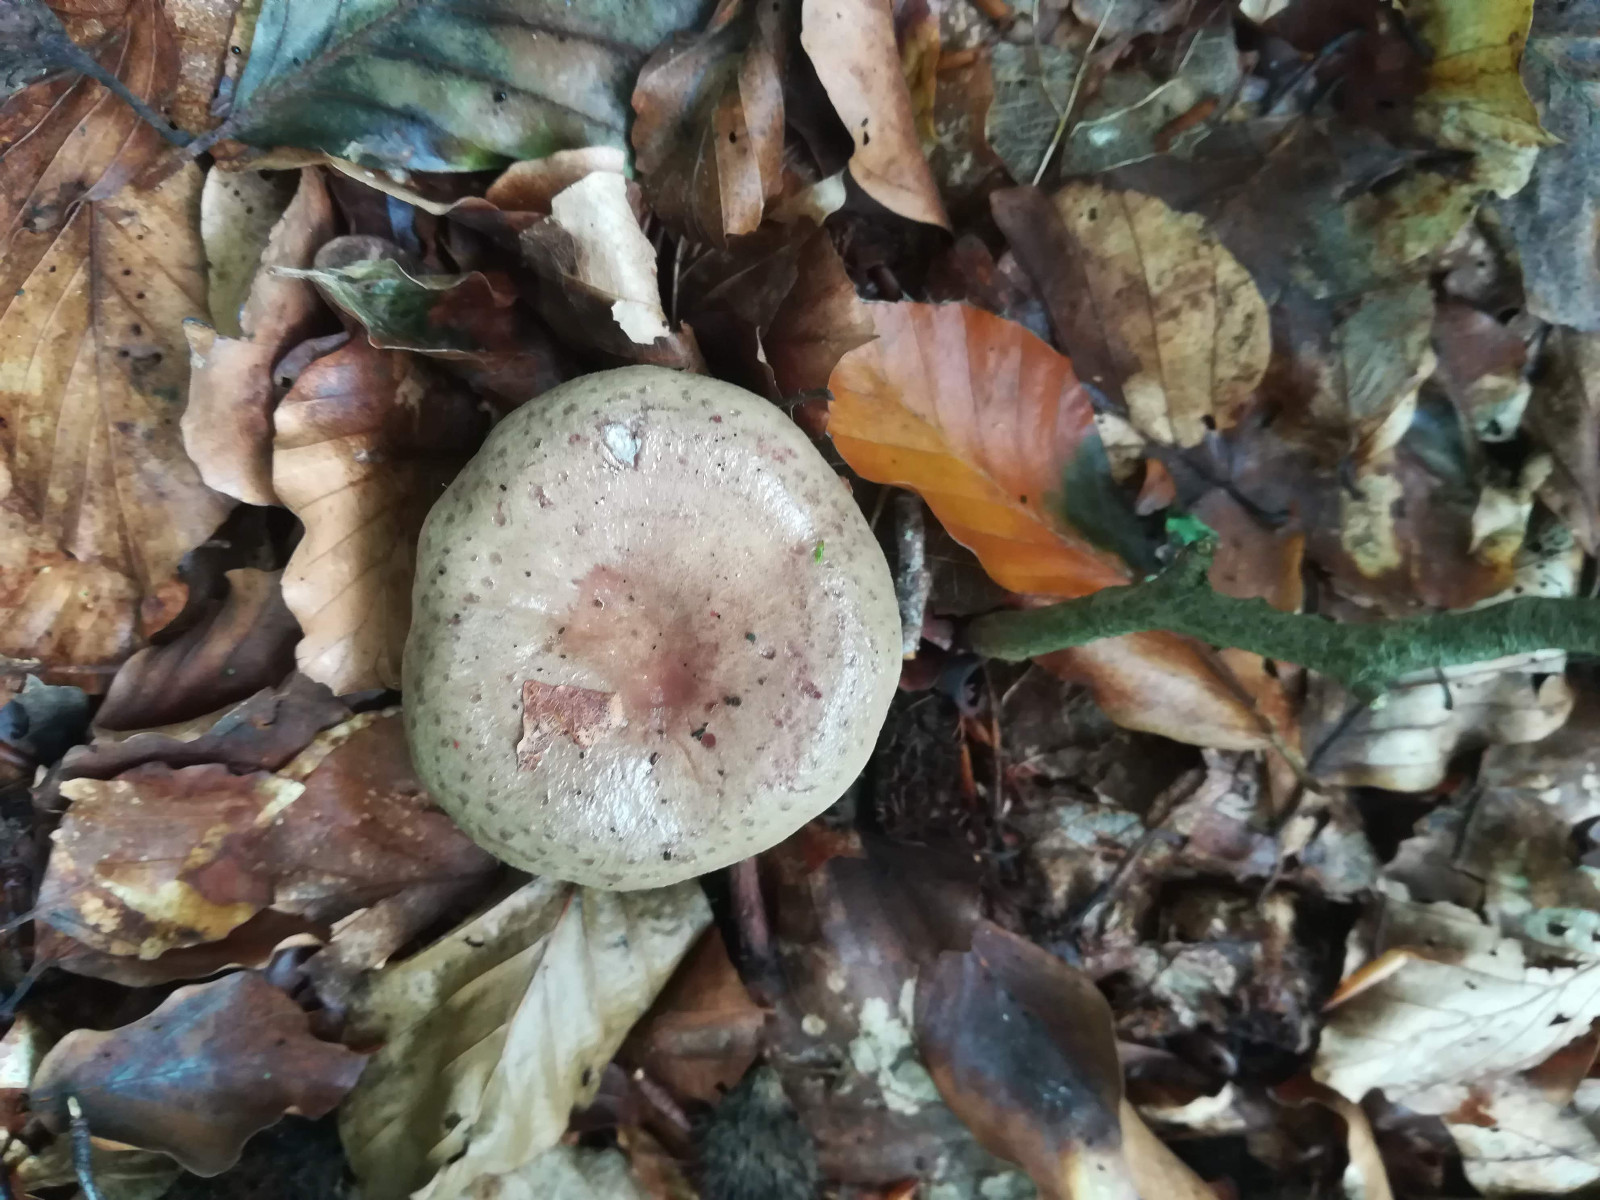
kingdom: Fungi
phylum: Basidiomycota
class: Agaricomycetes
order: Russulales
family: Russulaceae
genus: Lactarius
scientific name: Lactarius blennius
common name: dråbeplettet mælkehat
